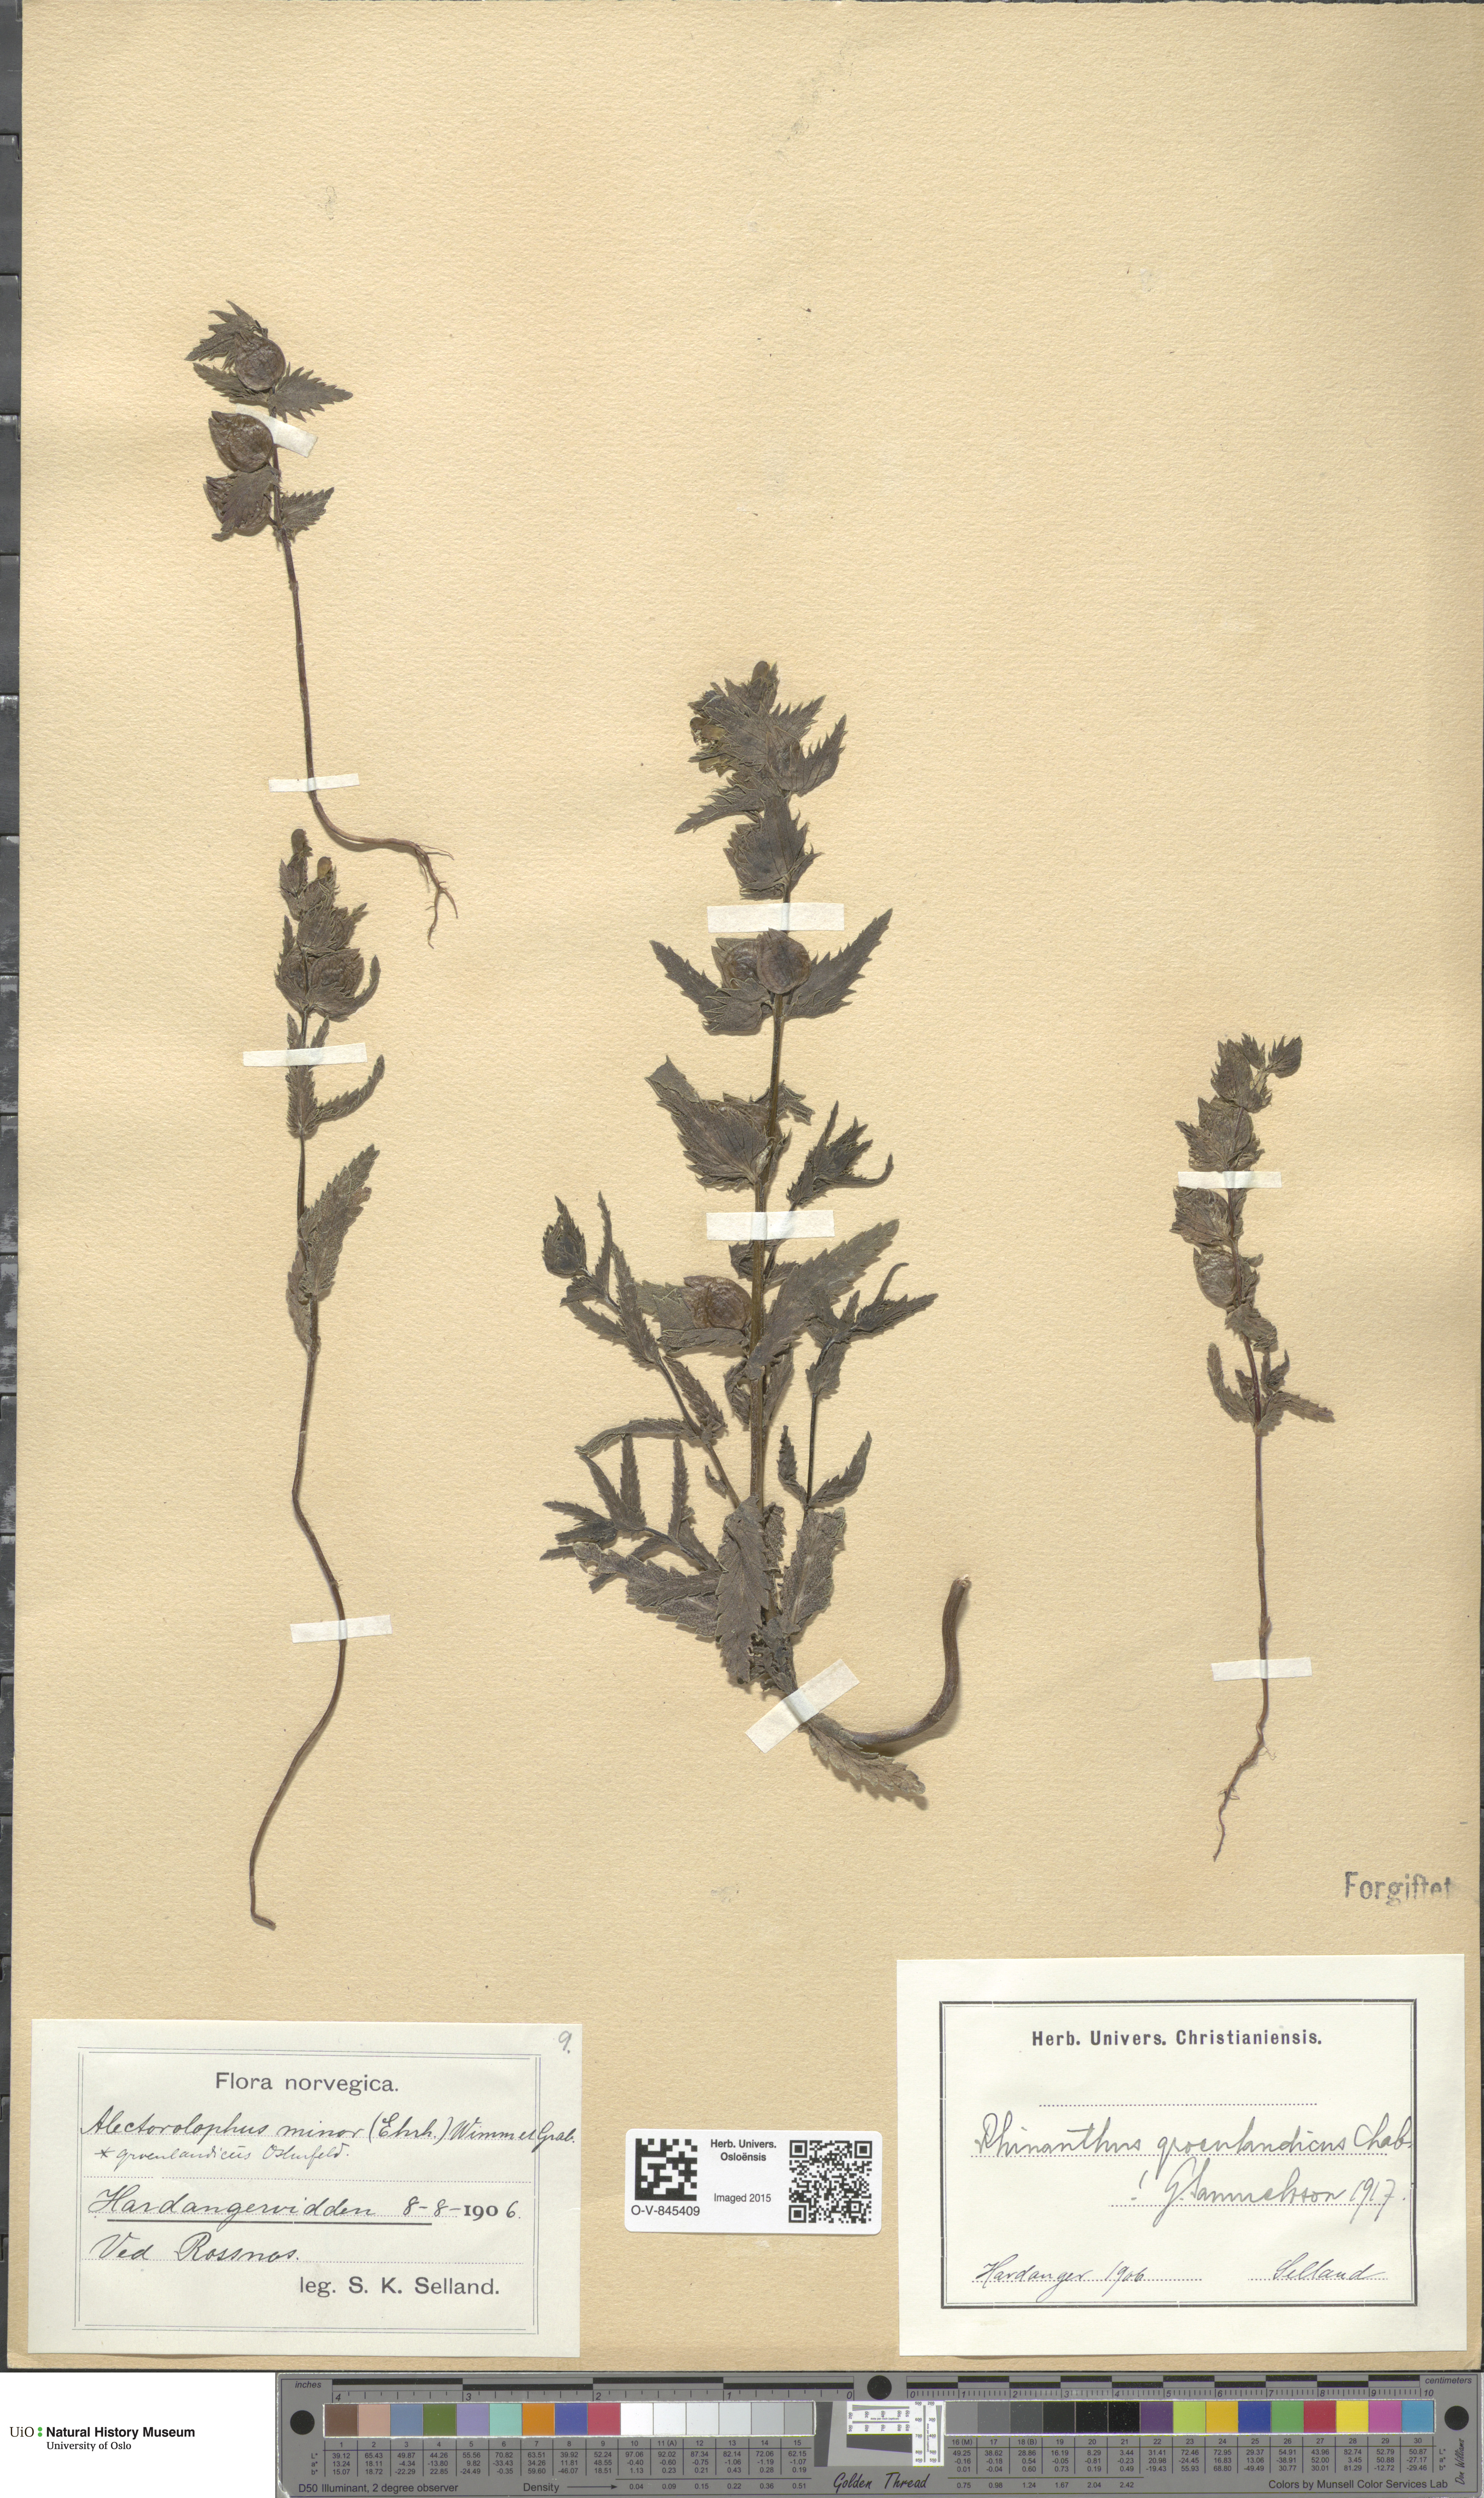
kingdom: Plantae
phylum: Tracheophyta
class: Magnoliopsida
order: Lamiales
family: Orobanchaceae
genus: Rhinanthus
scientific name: Rhinanthus groenlandicus
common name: Little yellow rattle
